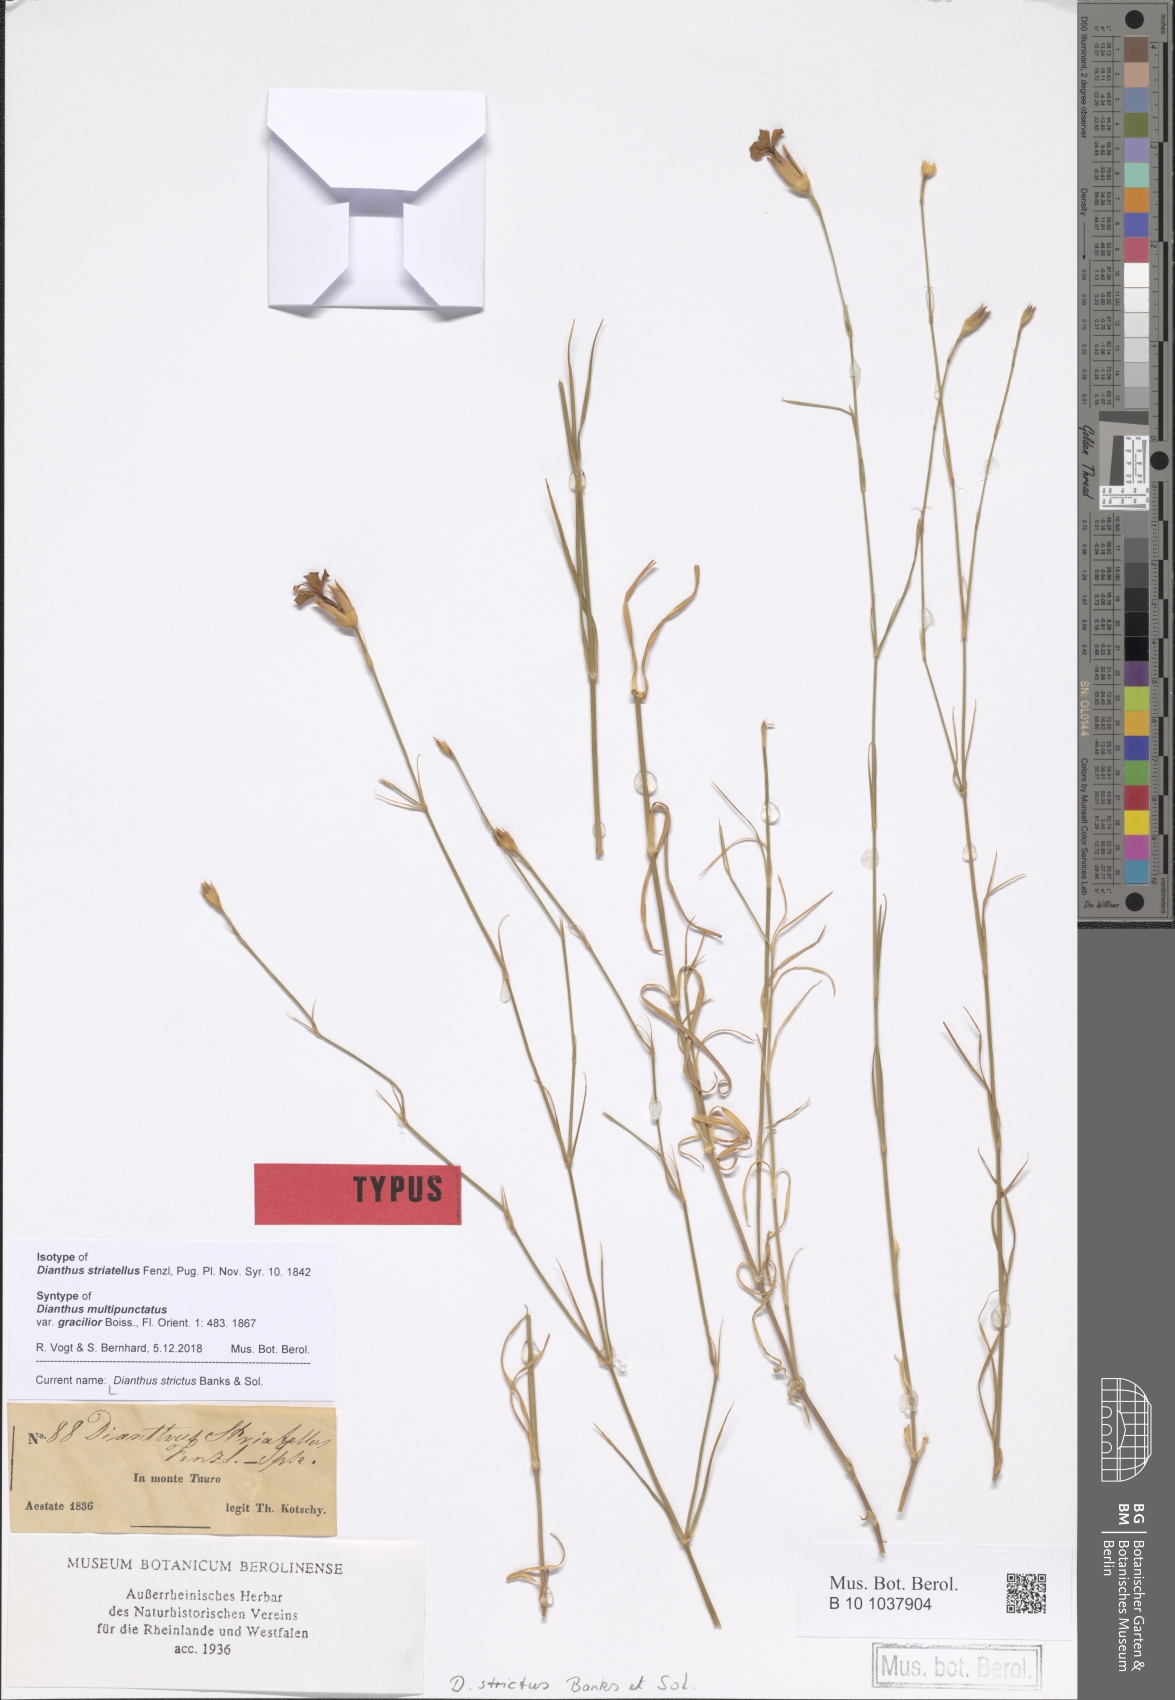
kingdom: Plantae
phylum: Tracheophyta
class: Magnoliopsida
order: Caryophyllales
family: Caryophyllaceae
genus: Dianthus
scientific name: Dianthus strictus
